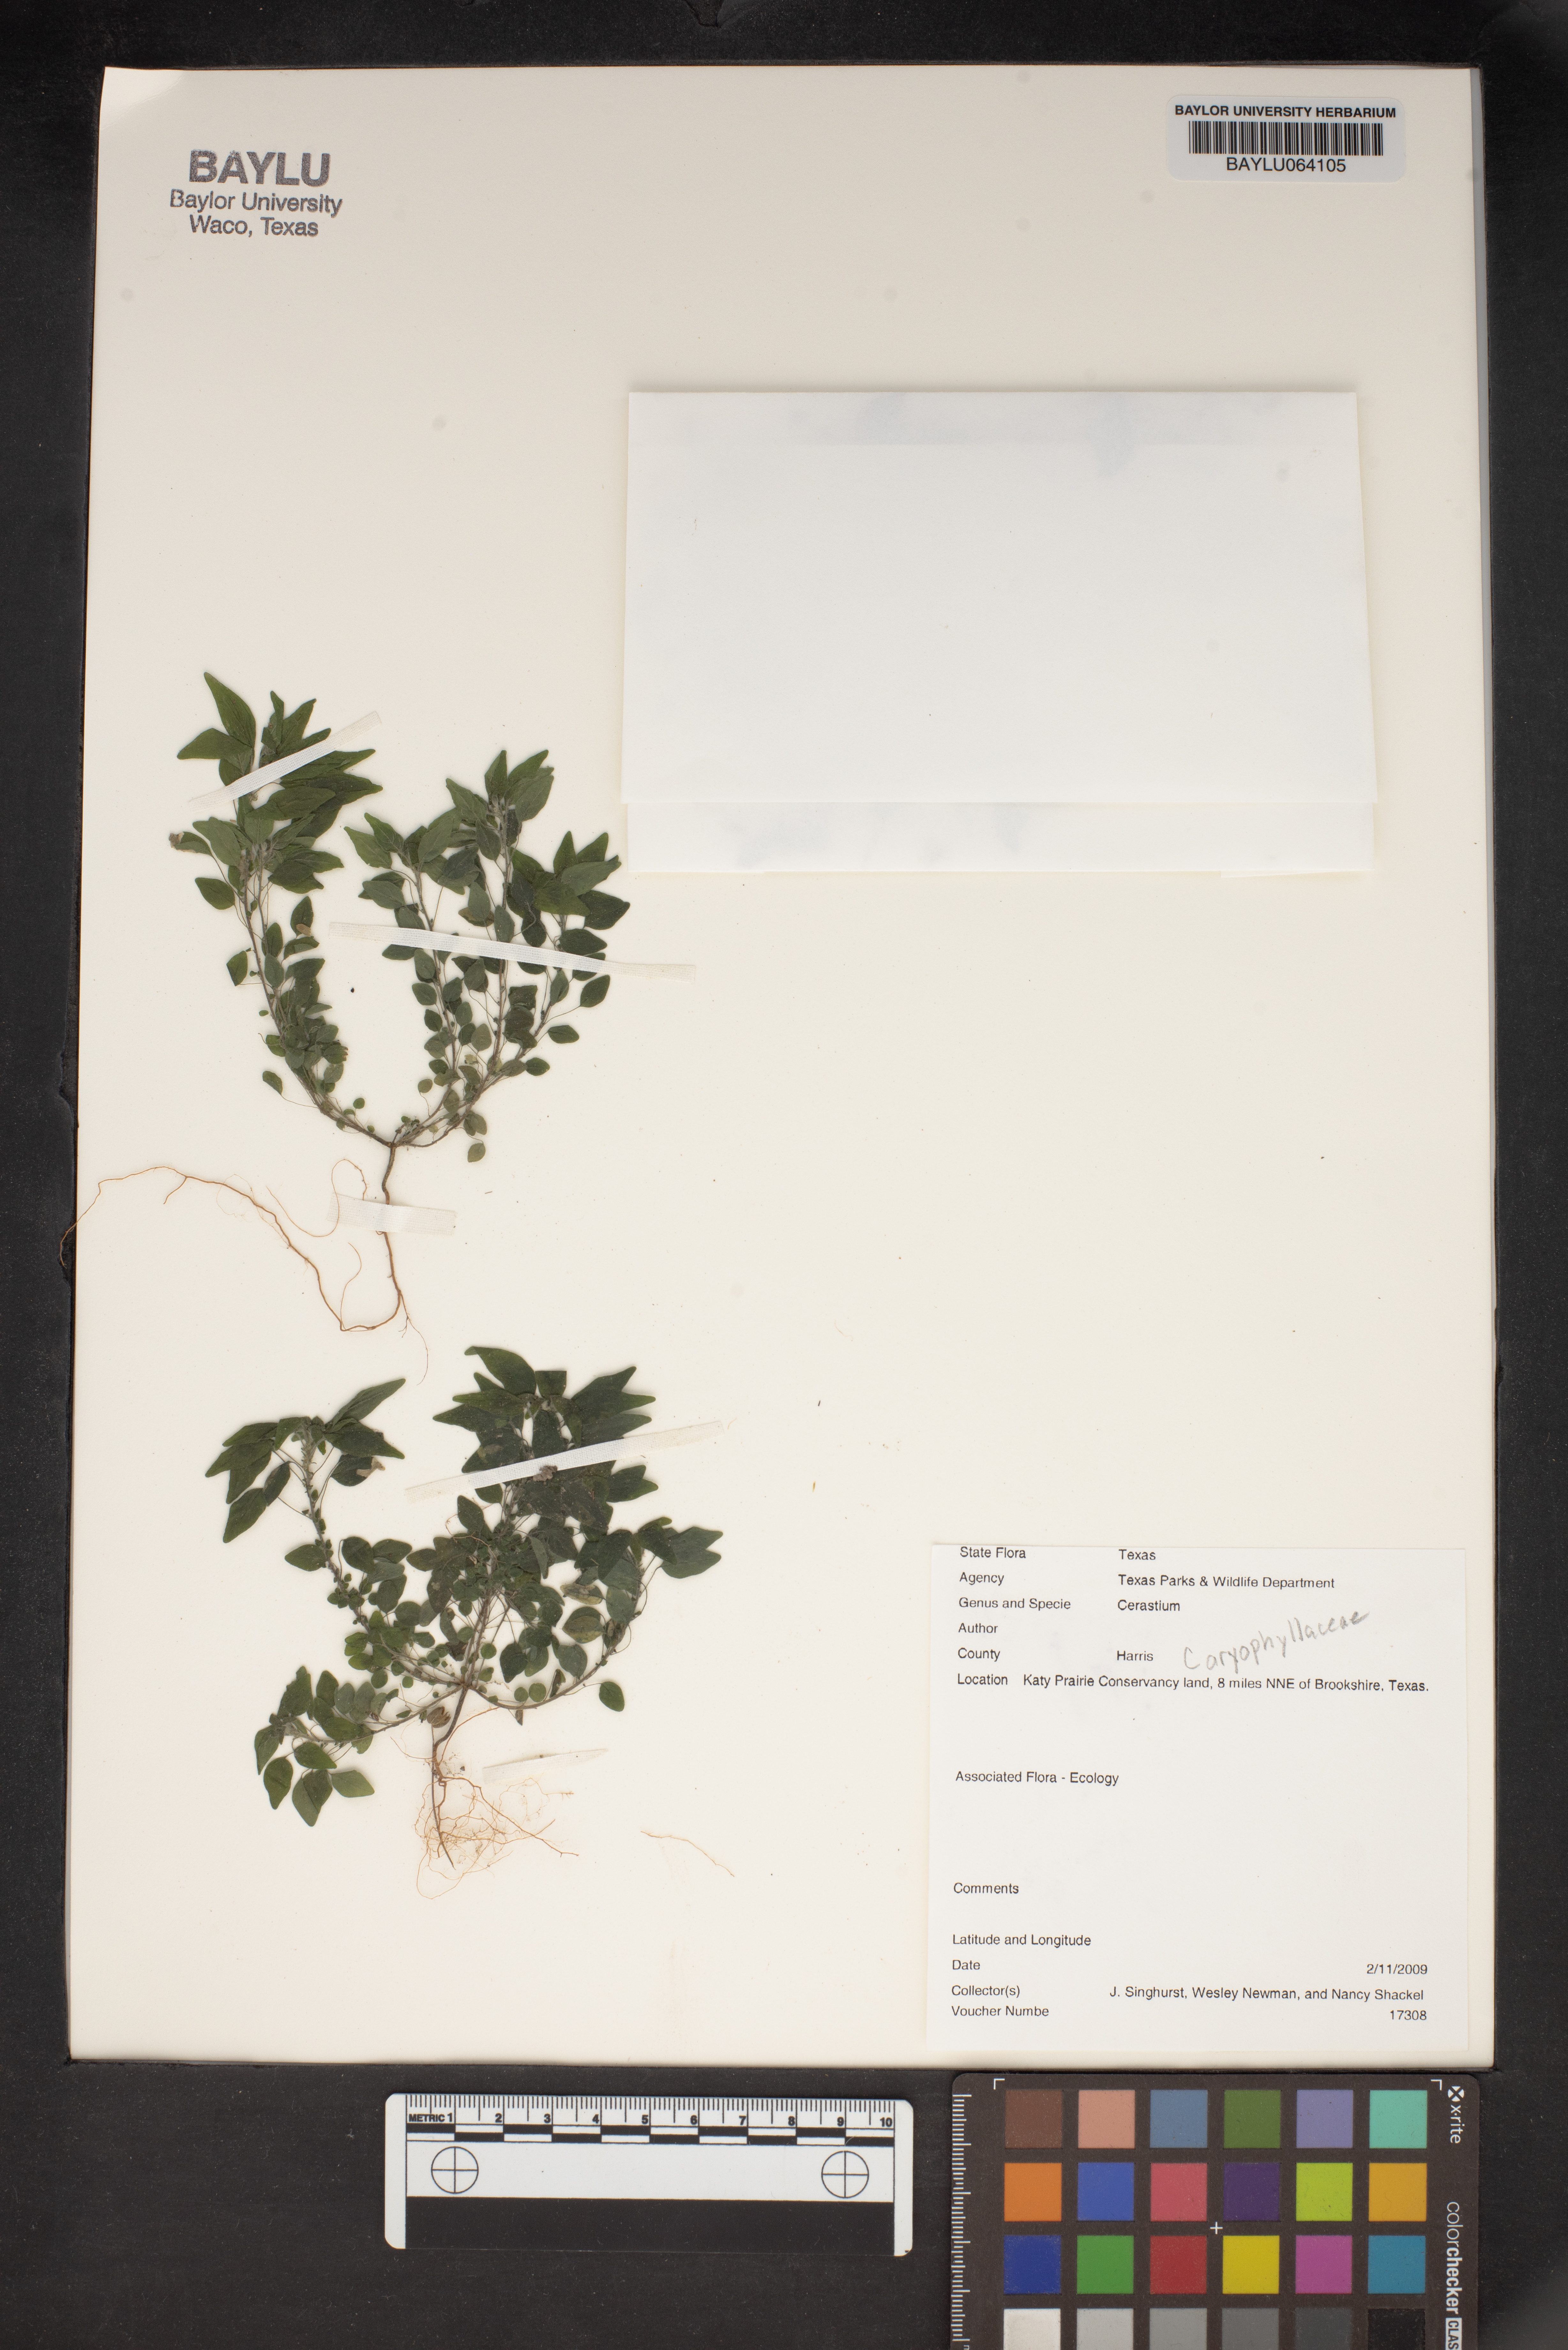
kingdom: Plantae
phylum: Tracheophyta
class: Magnoliopsida
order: Caryophyllales
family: Caryophyllaceae
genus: Cerastium
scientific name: Cerastium
